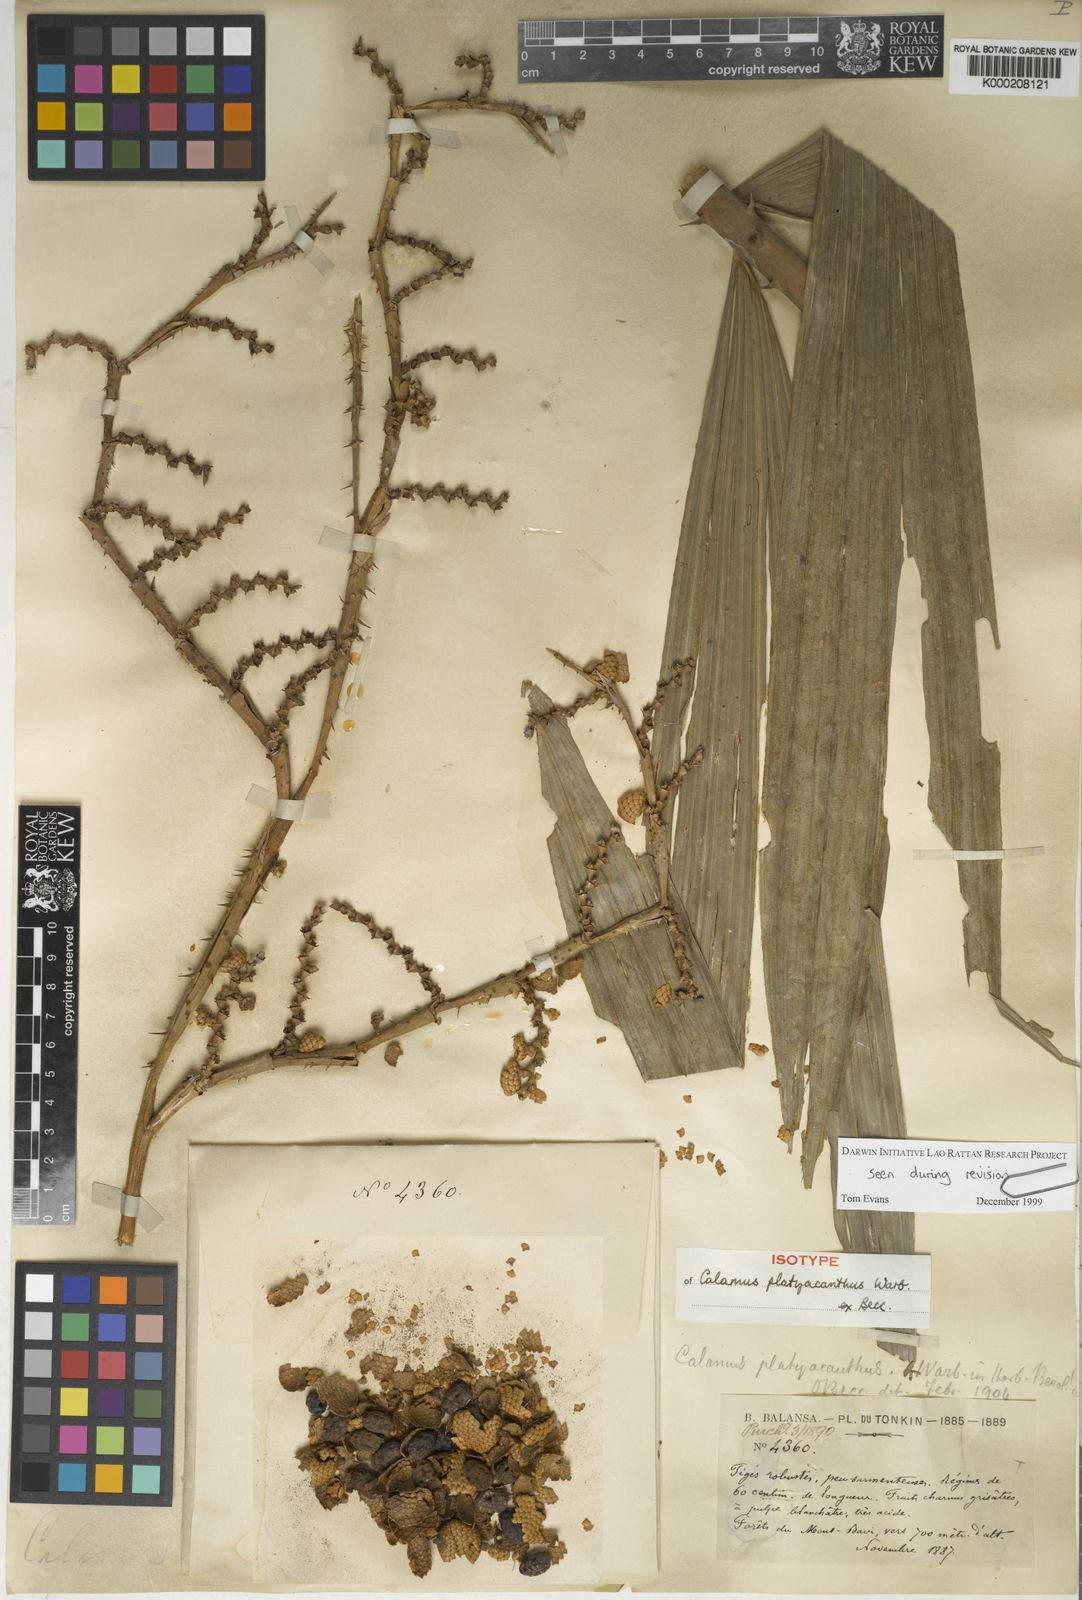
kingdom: Plantae
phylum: Tracheophyta
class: Liliopsida
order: Arecales
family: Arecaceae
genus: Calamus
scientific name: Calamus inermis
